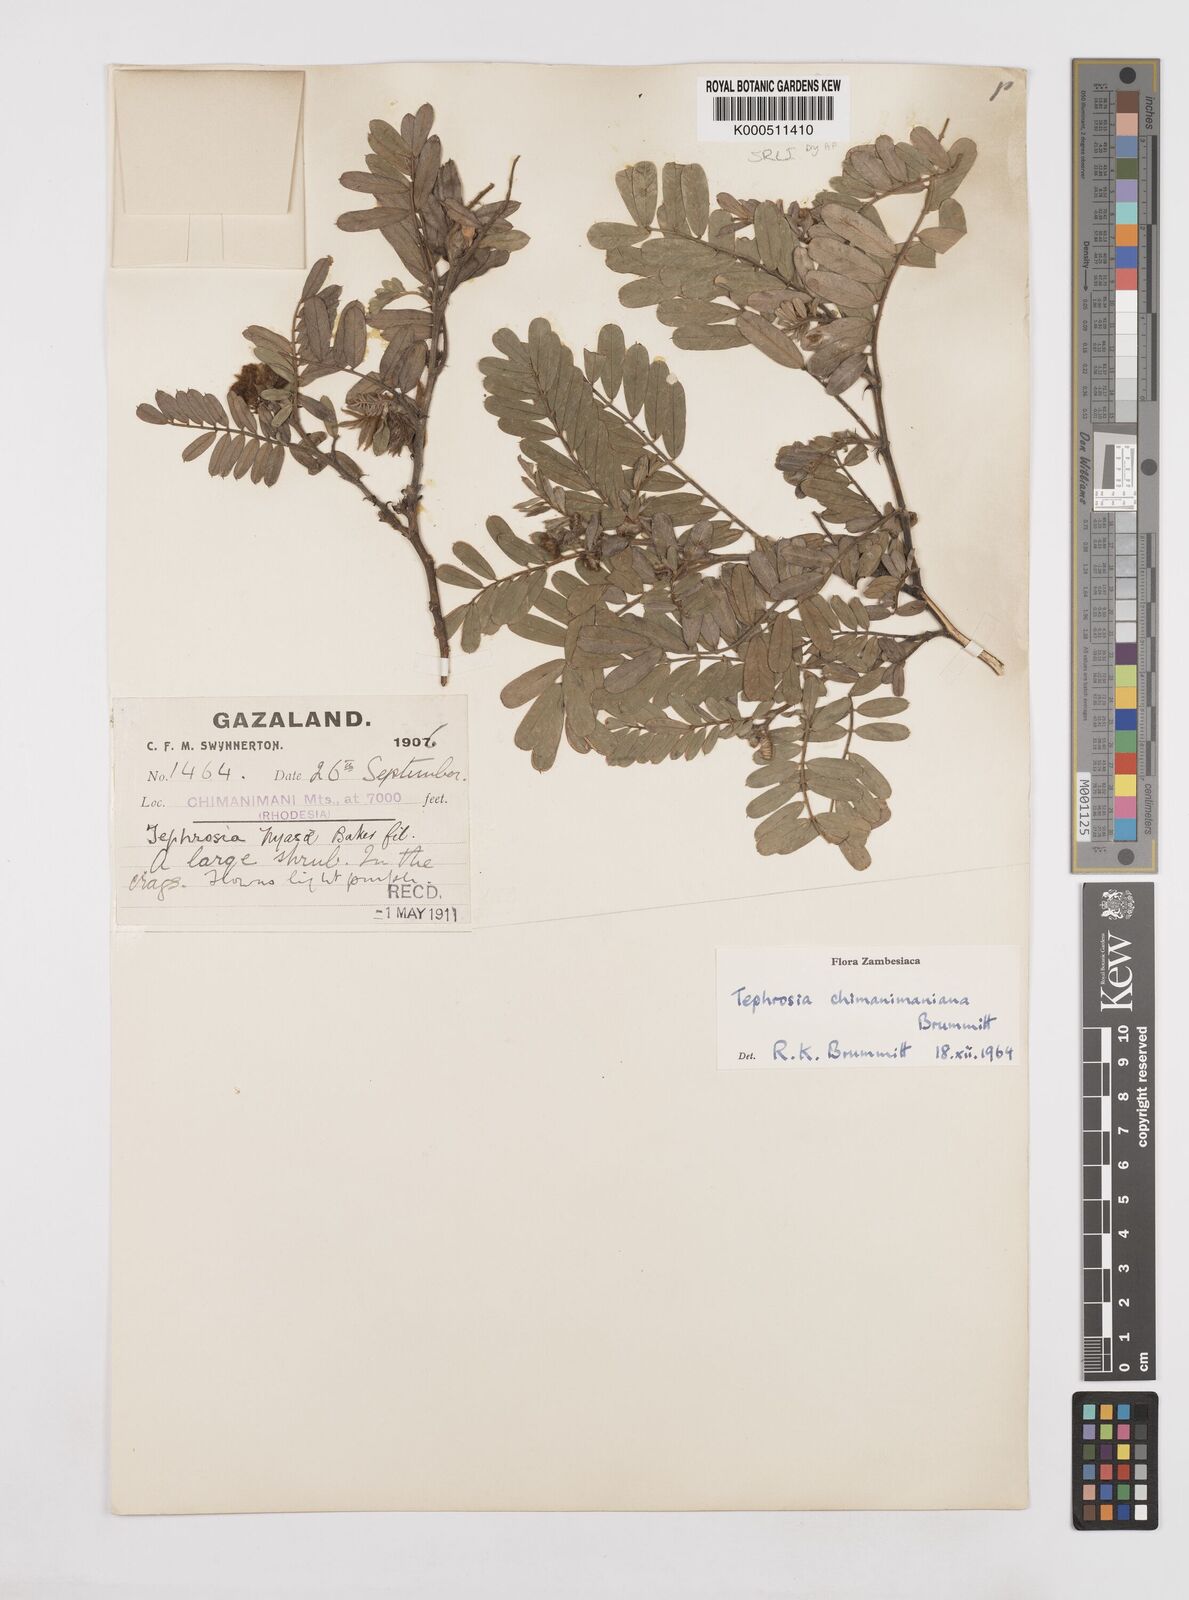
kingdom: Plantae
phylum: Tracheophyta
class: Magnoliopsida
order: Fabales
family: Fabaceae
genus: Tephrosia
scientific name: Tephrosia chimanimaniana
